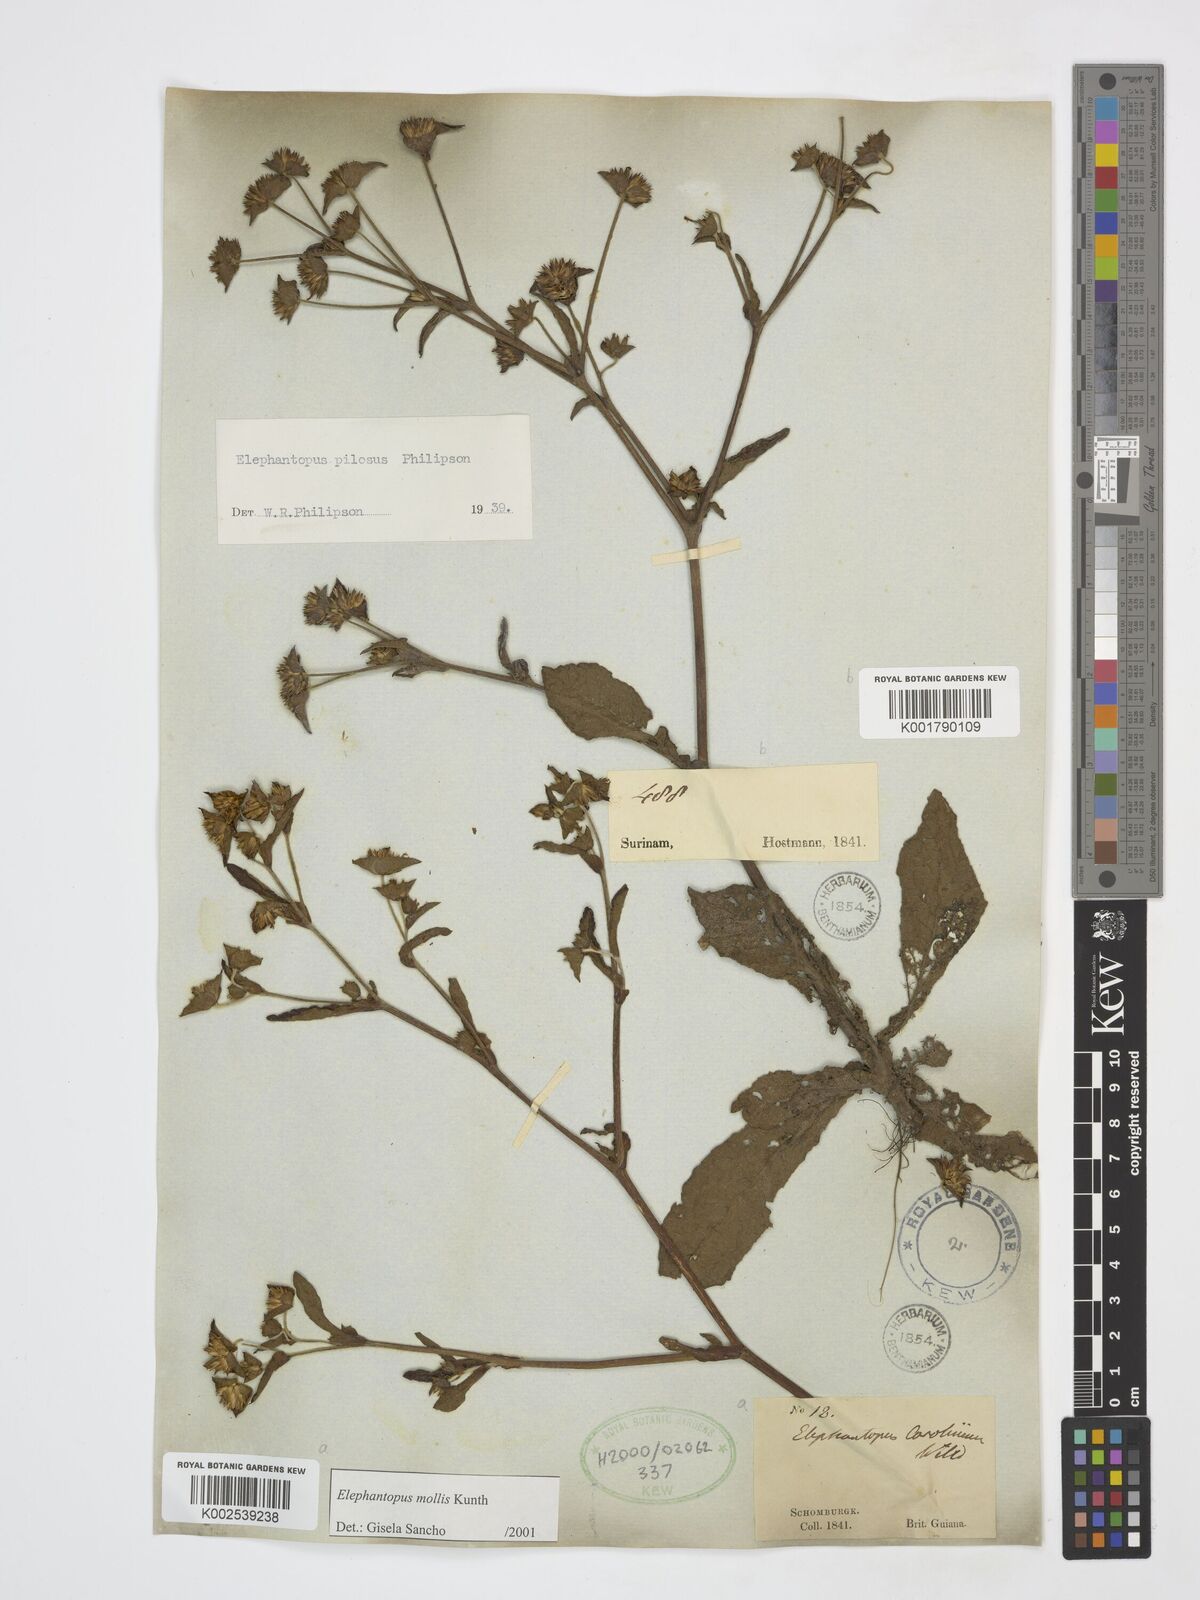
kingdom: Plantae
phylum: Tracheophyta
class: Magnoliopsida
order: Asterales
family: Asteraceae
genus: Elephantopus
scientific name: Elephantopus mollis
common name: Soft elephantsfoot
